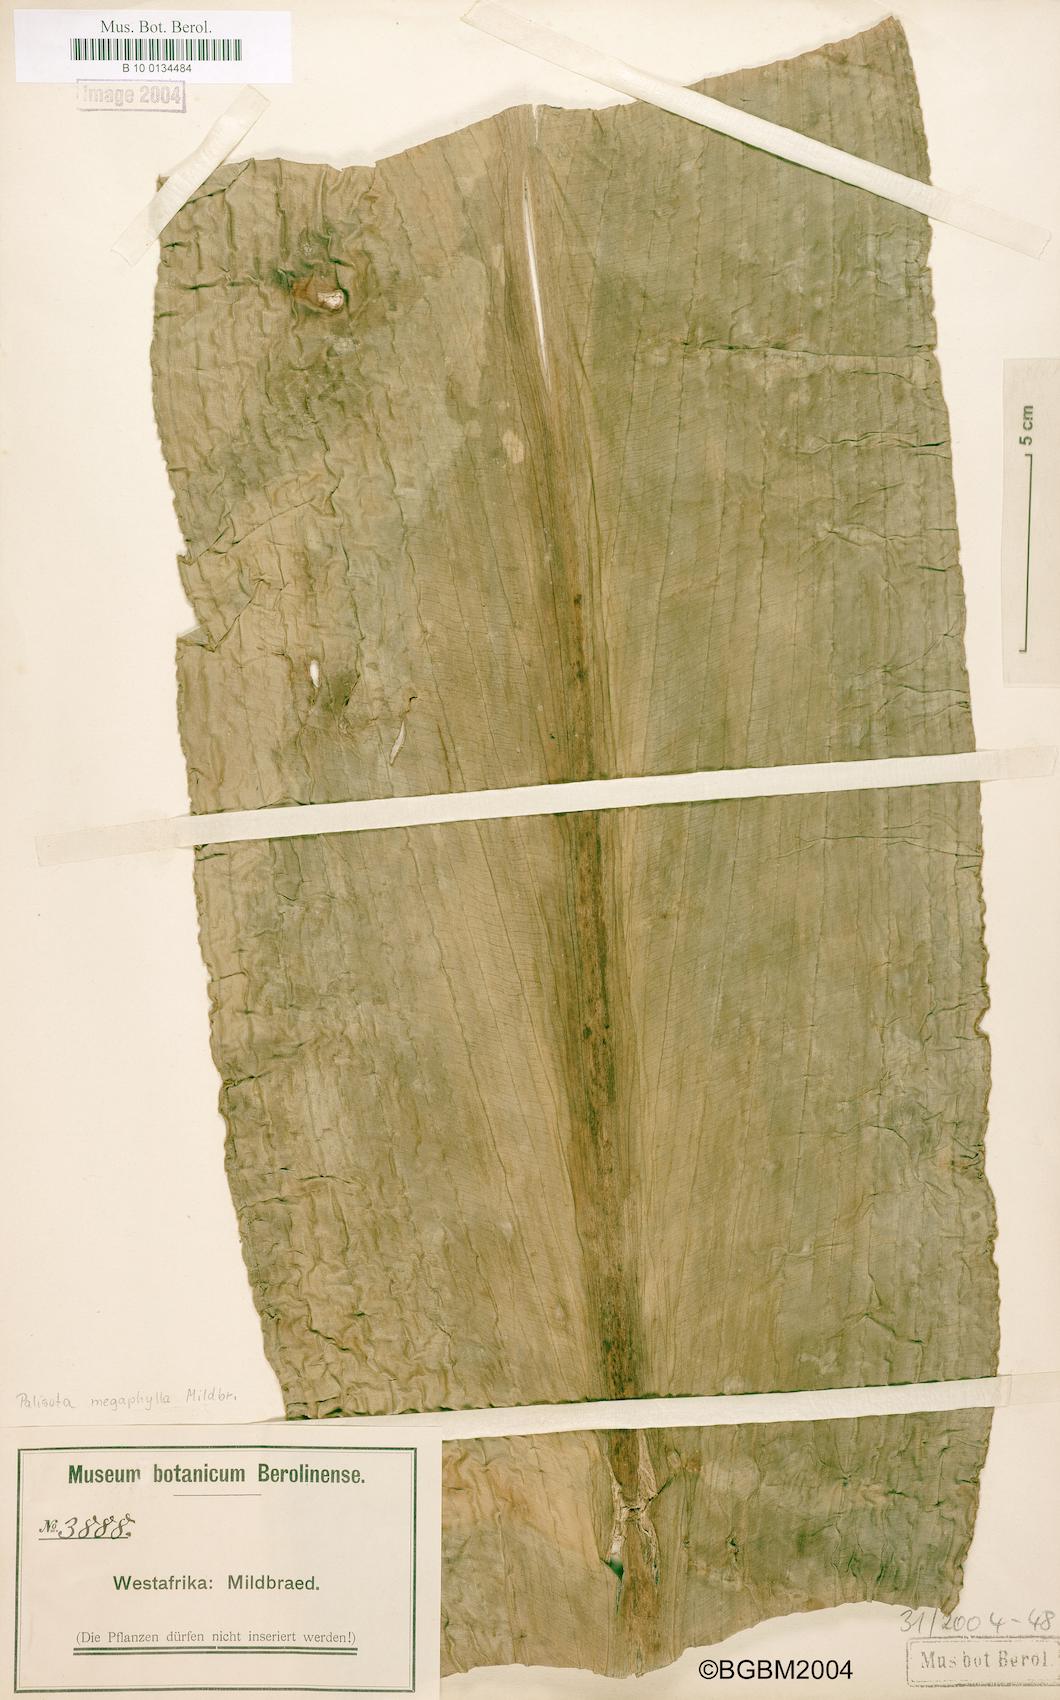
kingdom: Plantae
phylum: Tracheophyta
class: Liliopsida
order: Commelinales
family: Commelinaceae
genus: Palisota
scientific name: Palisota mannii
